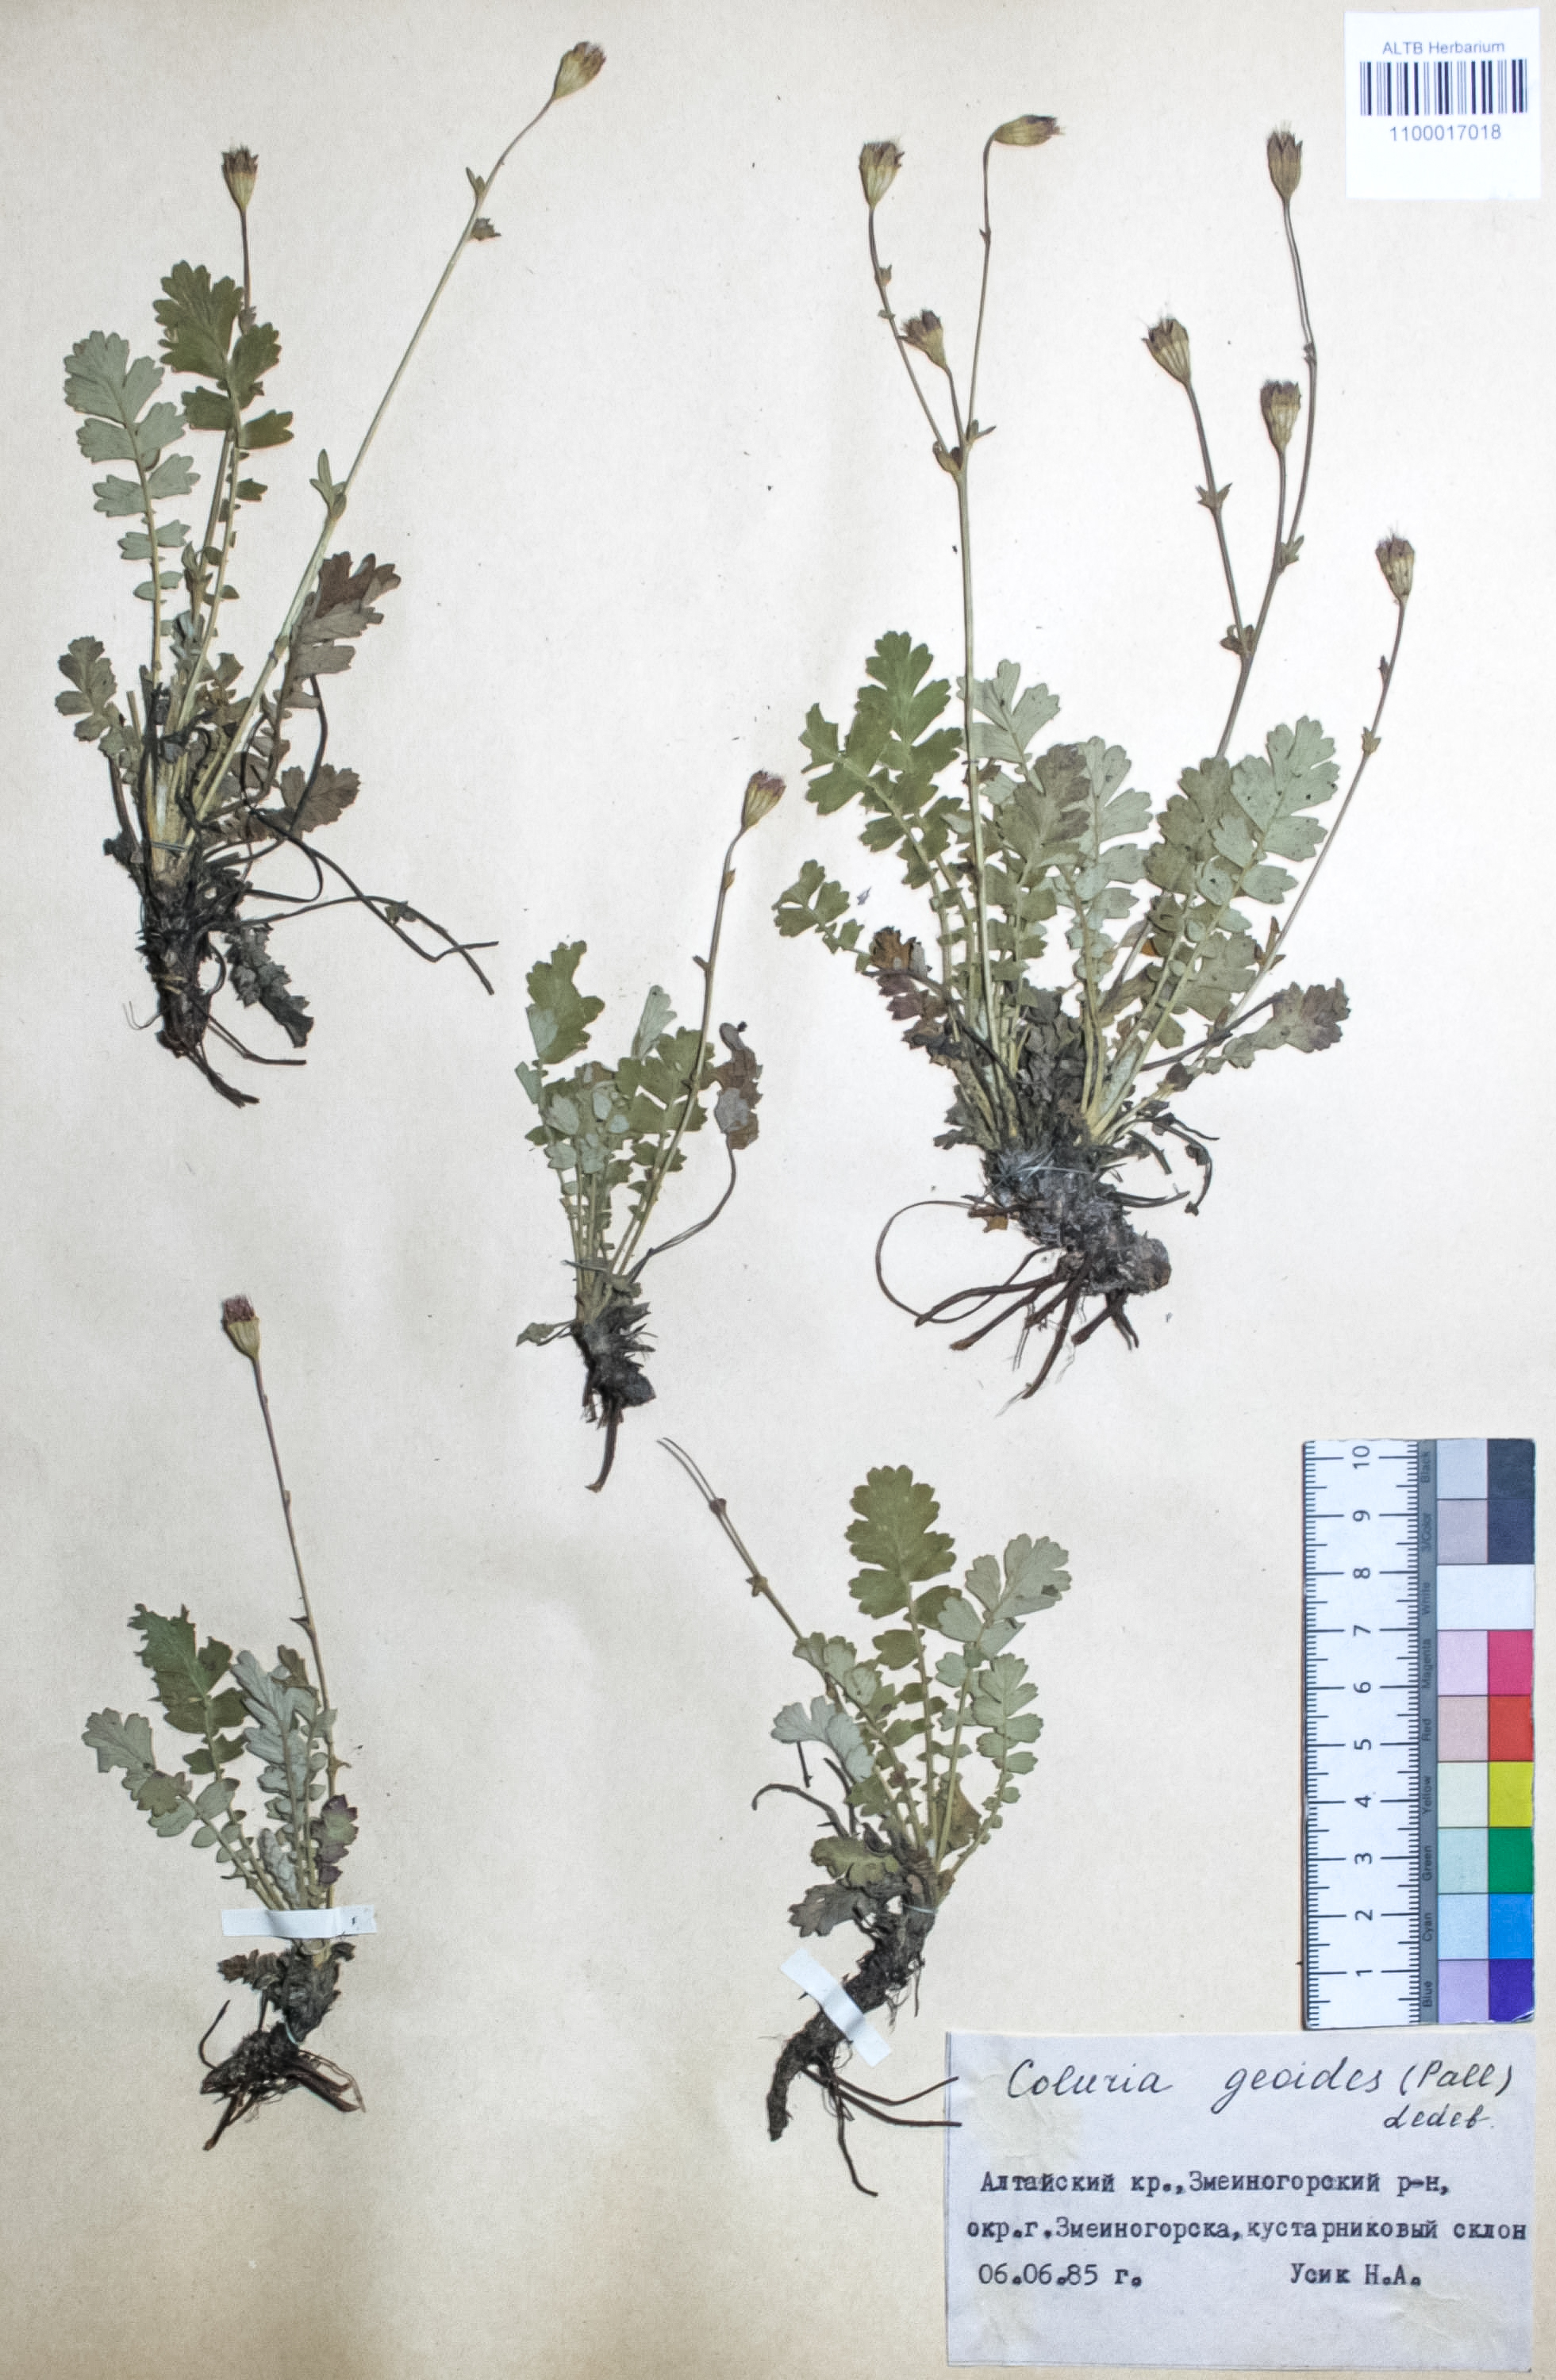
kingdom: Plantae
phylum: Tracheophyta
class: Magnoliopsida
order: Rosales
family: Rosaceae
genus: Geum
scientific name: Geum geoides
